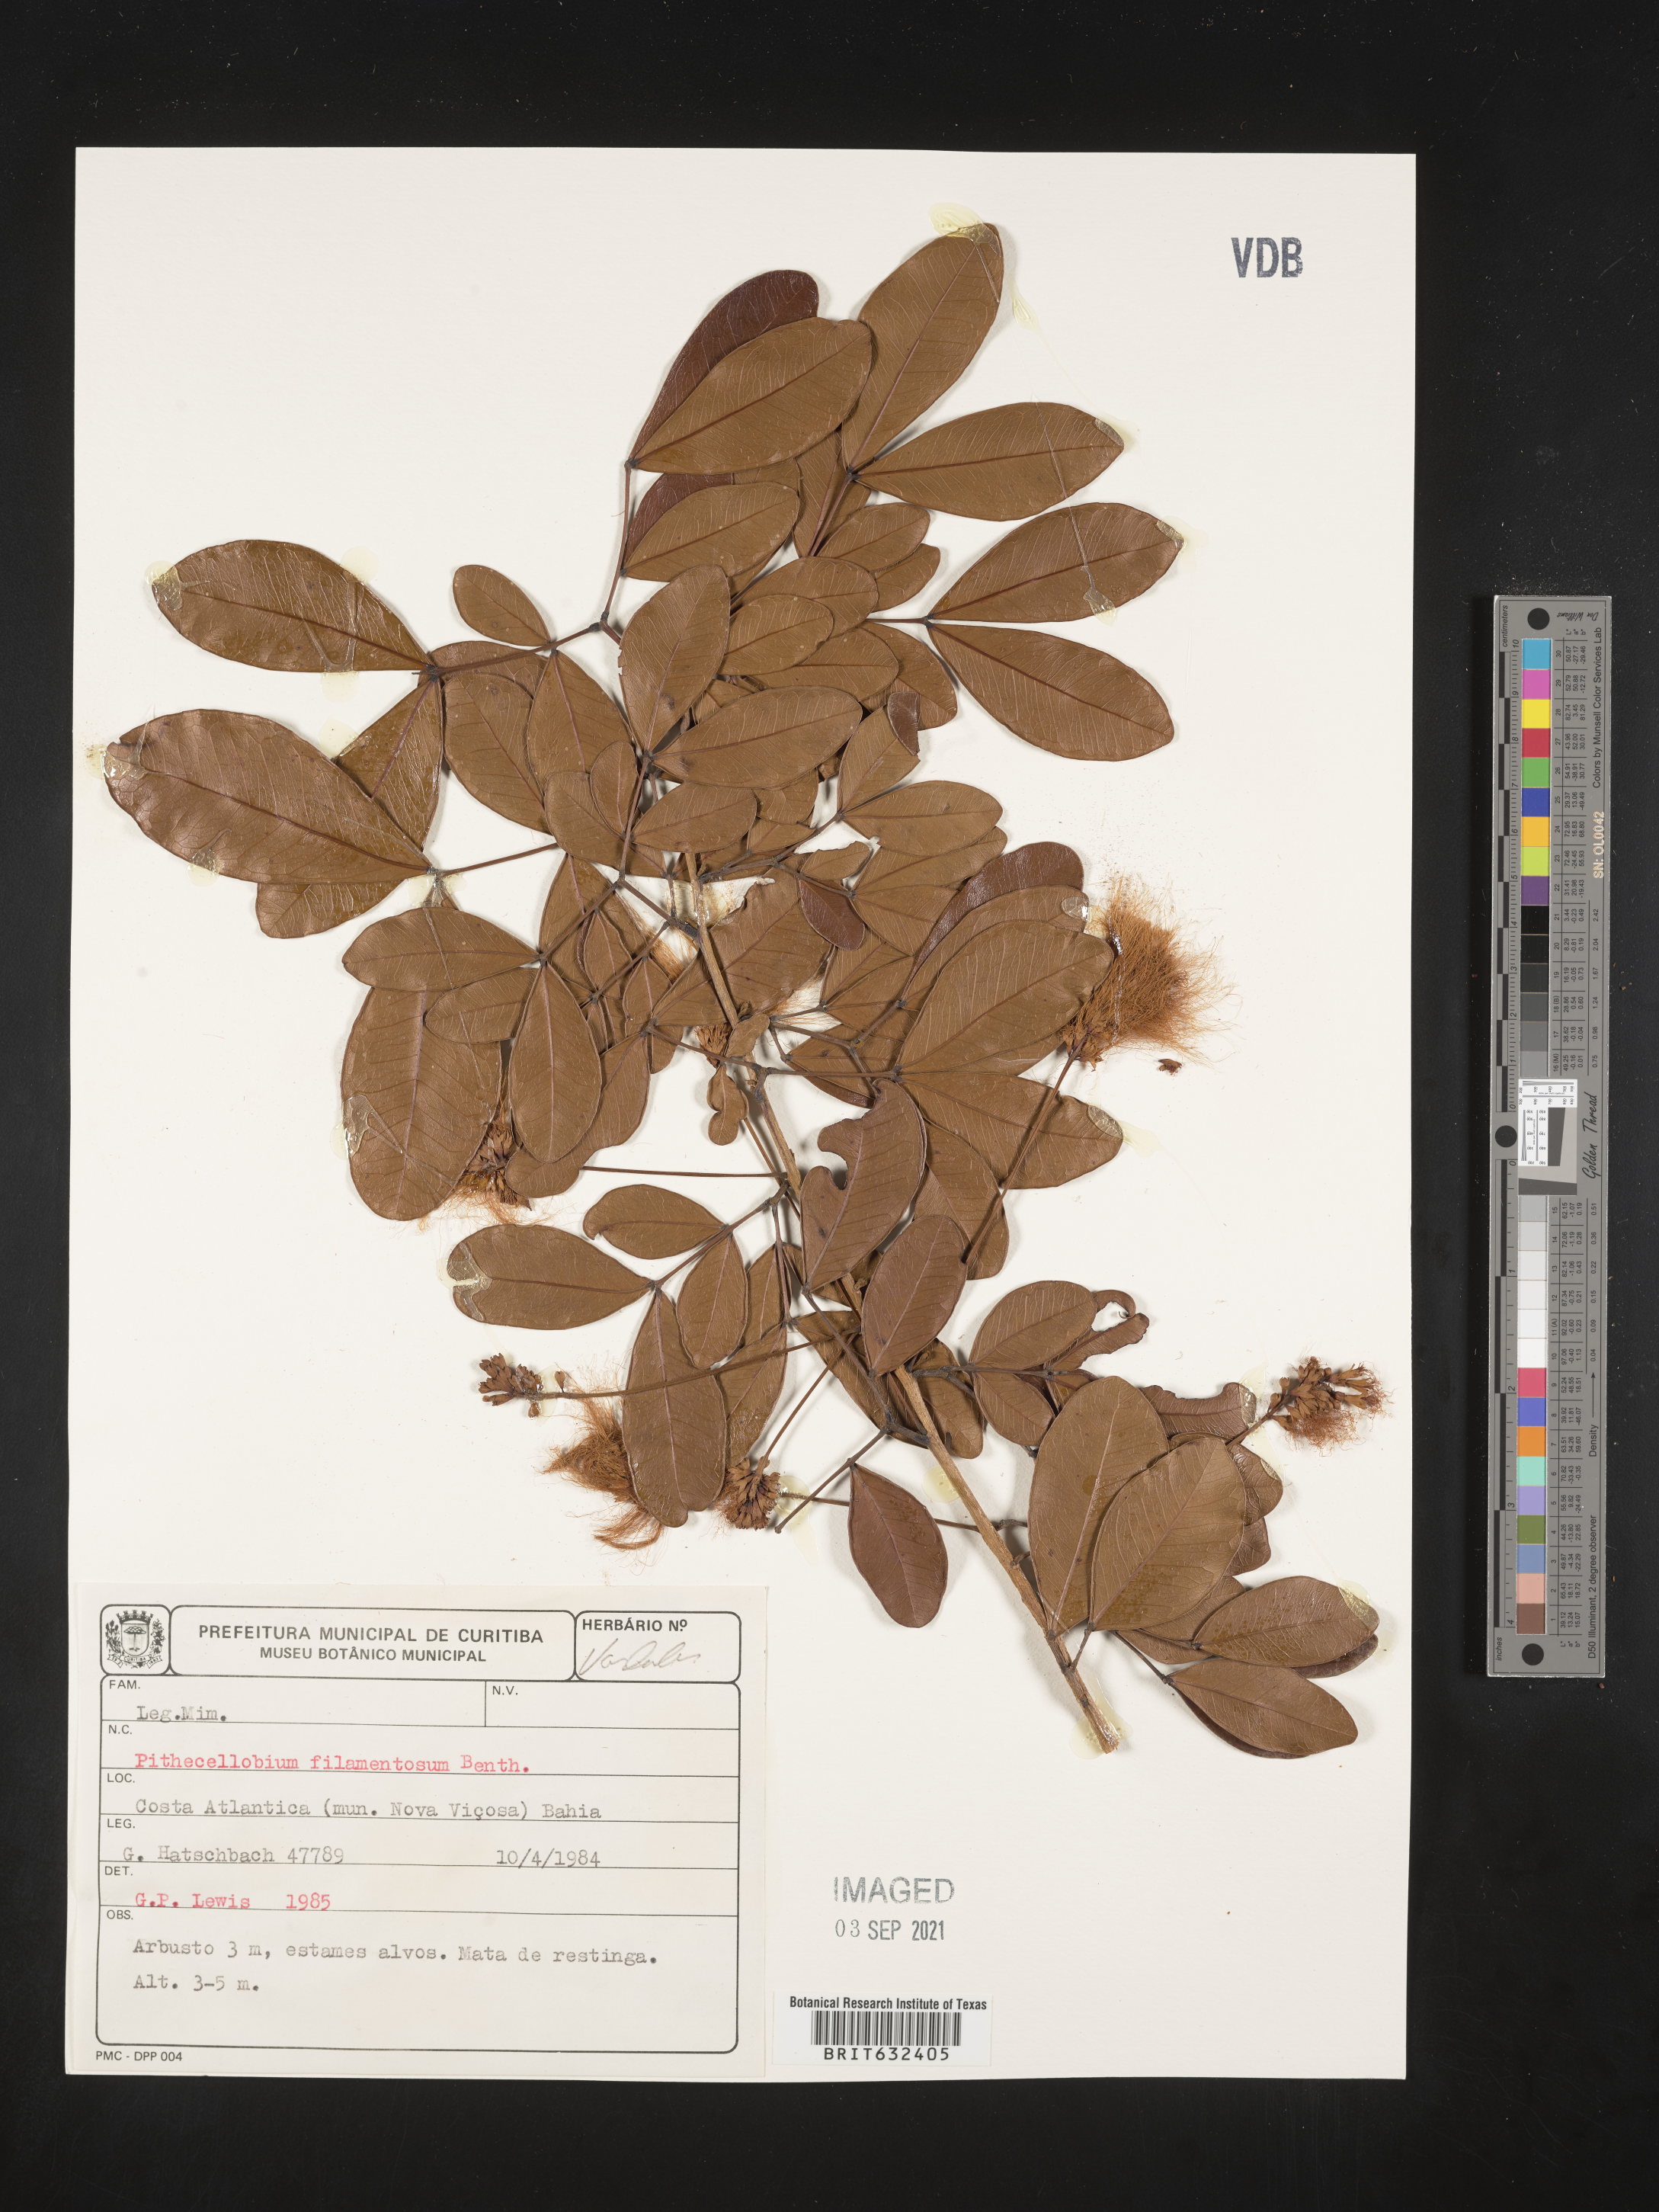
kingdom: Plantae
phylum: Tracheophyta
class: Magnoliopsida
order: Fabales
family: Fabaceae
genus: Pithecellobium
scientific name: Pithecellobium
